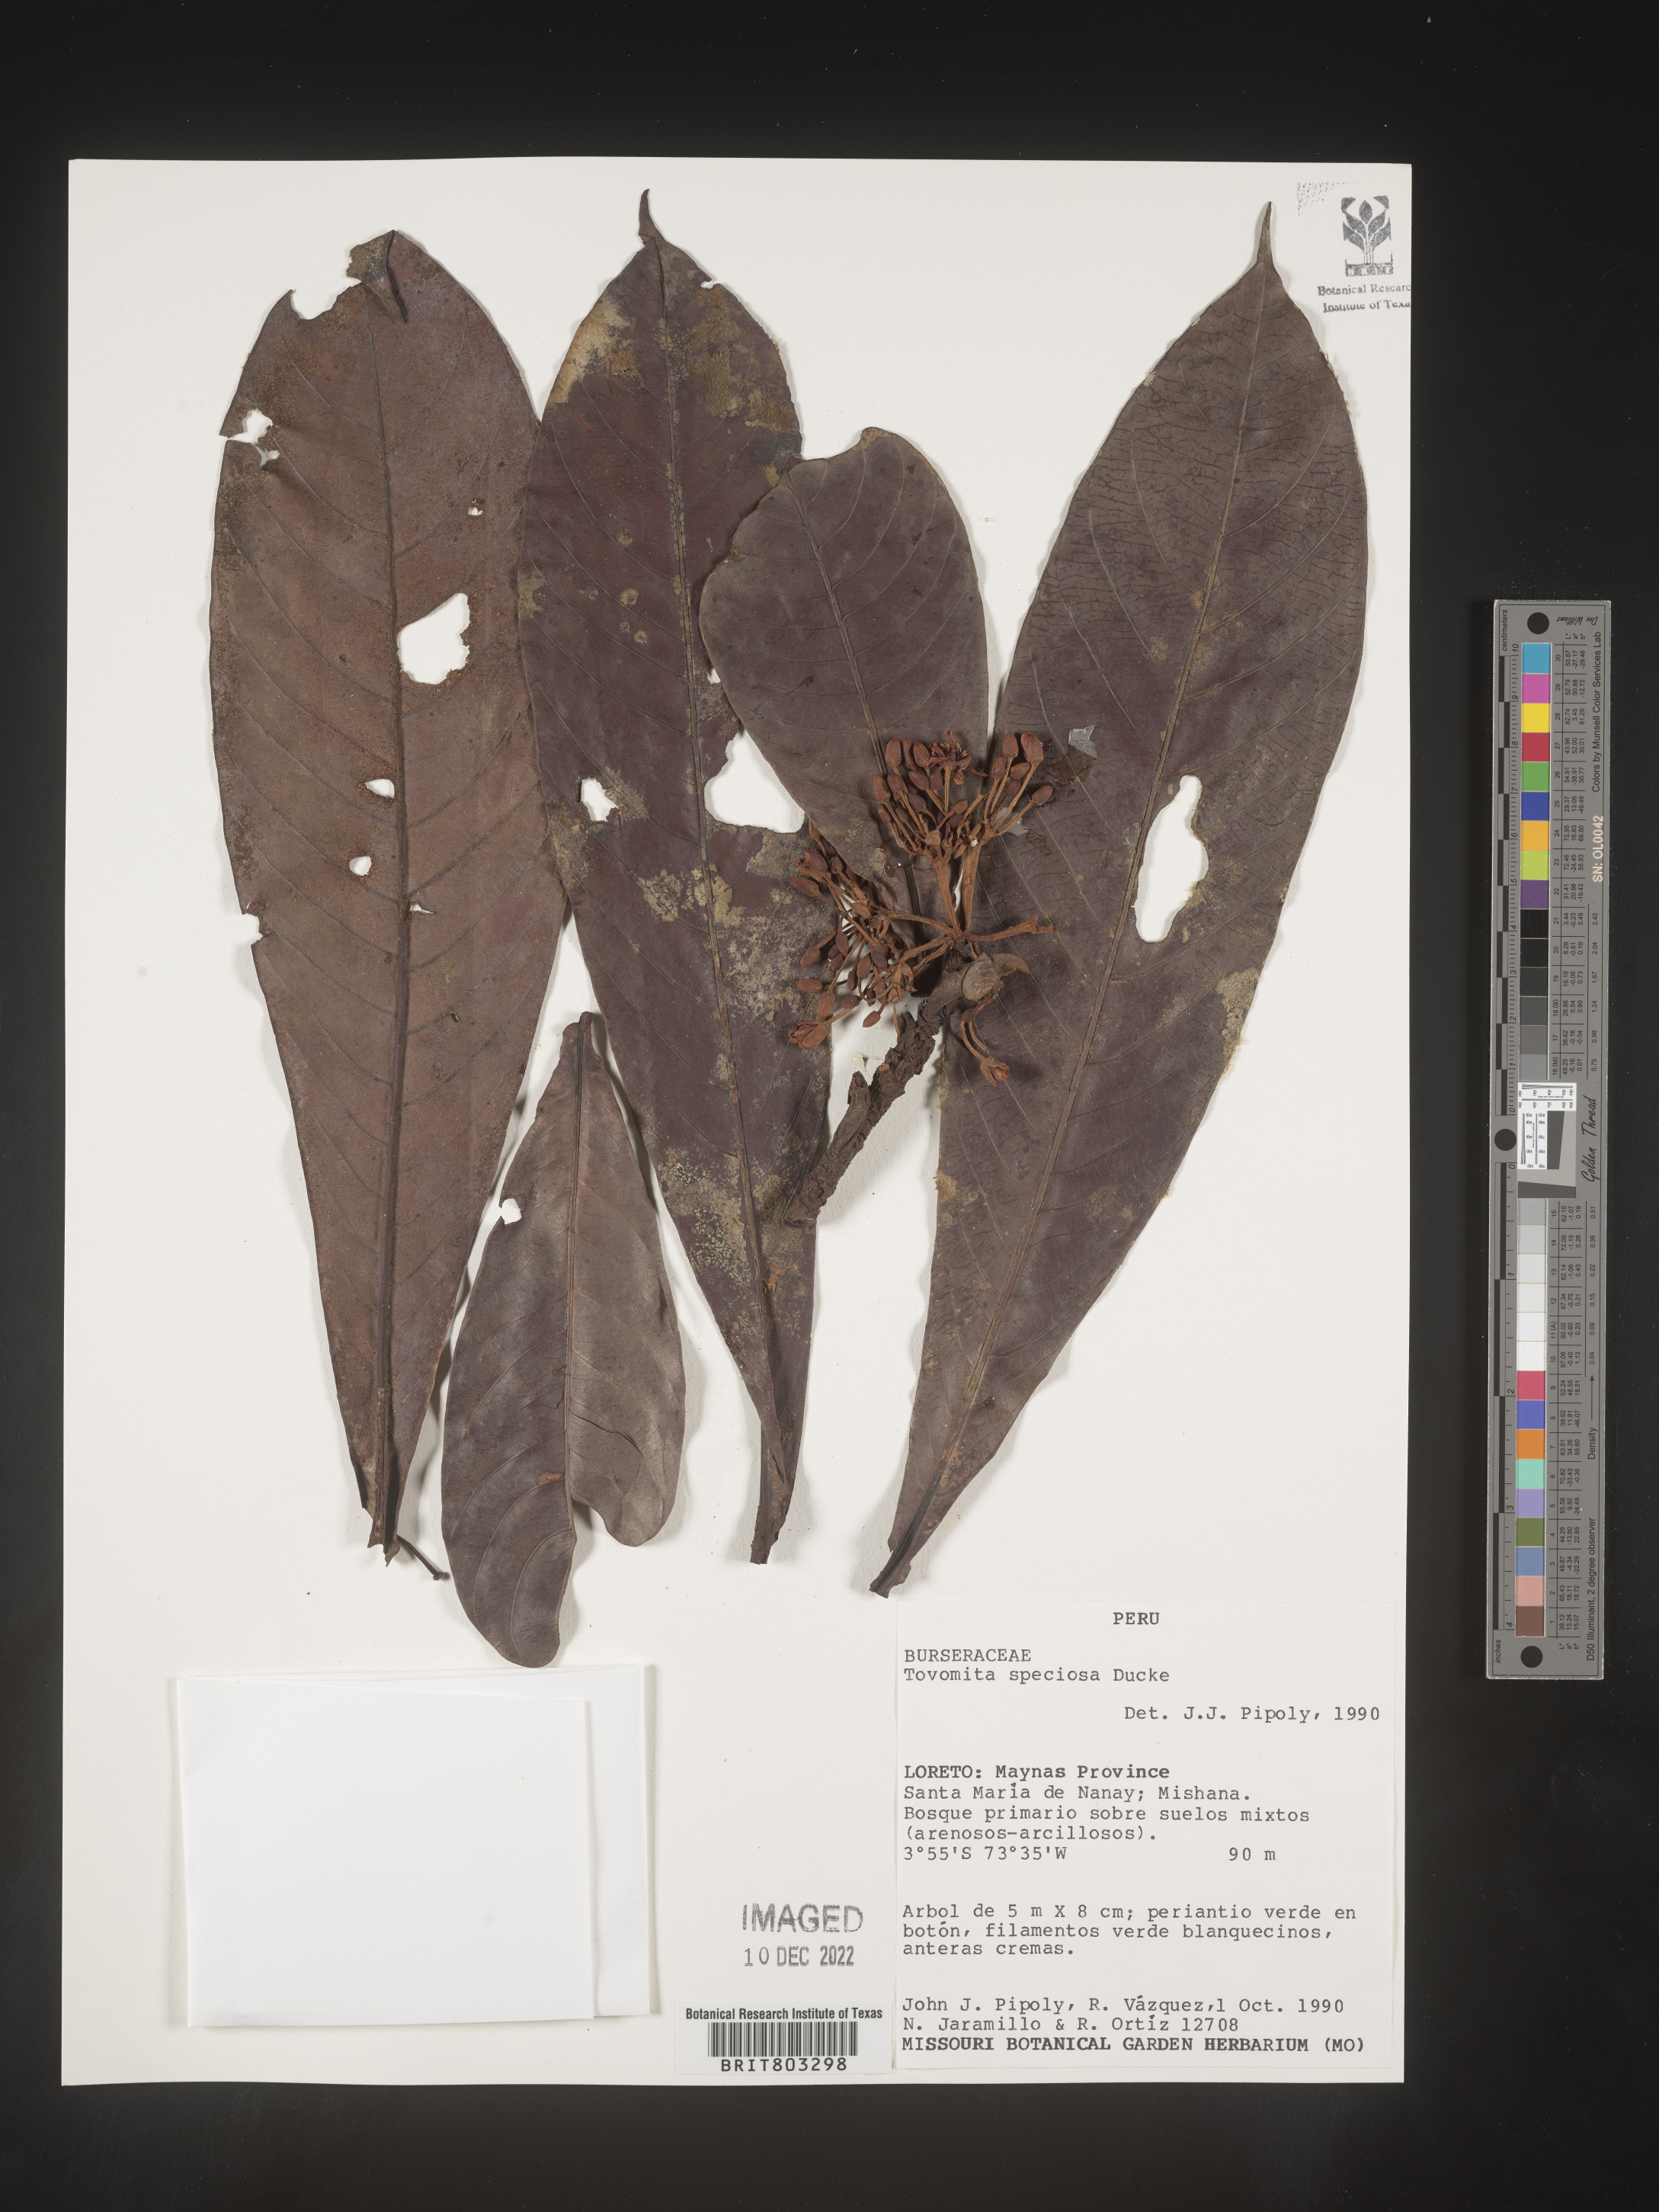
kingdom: Plantae
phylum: Tracheophyta
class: Magnoliopsida
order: Malpighiales
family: Clusiaceae
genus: Tovomita
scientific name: Tovomita
